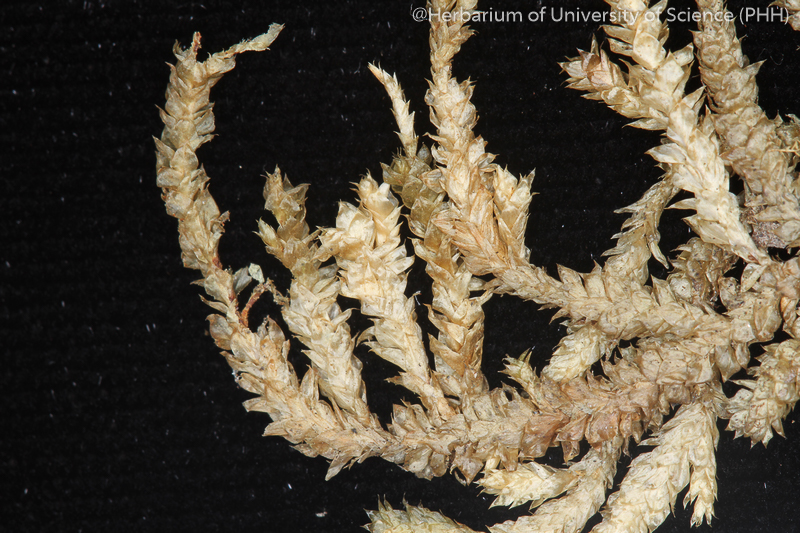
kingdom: Plantae
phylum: Bryophyta
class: Bryopsida
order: Hypnales
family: Pterobryaceae
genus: Pterobryopsis
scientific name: Pterobryopsis orientalis
